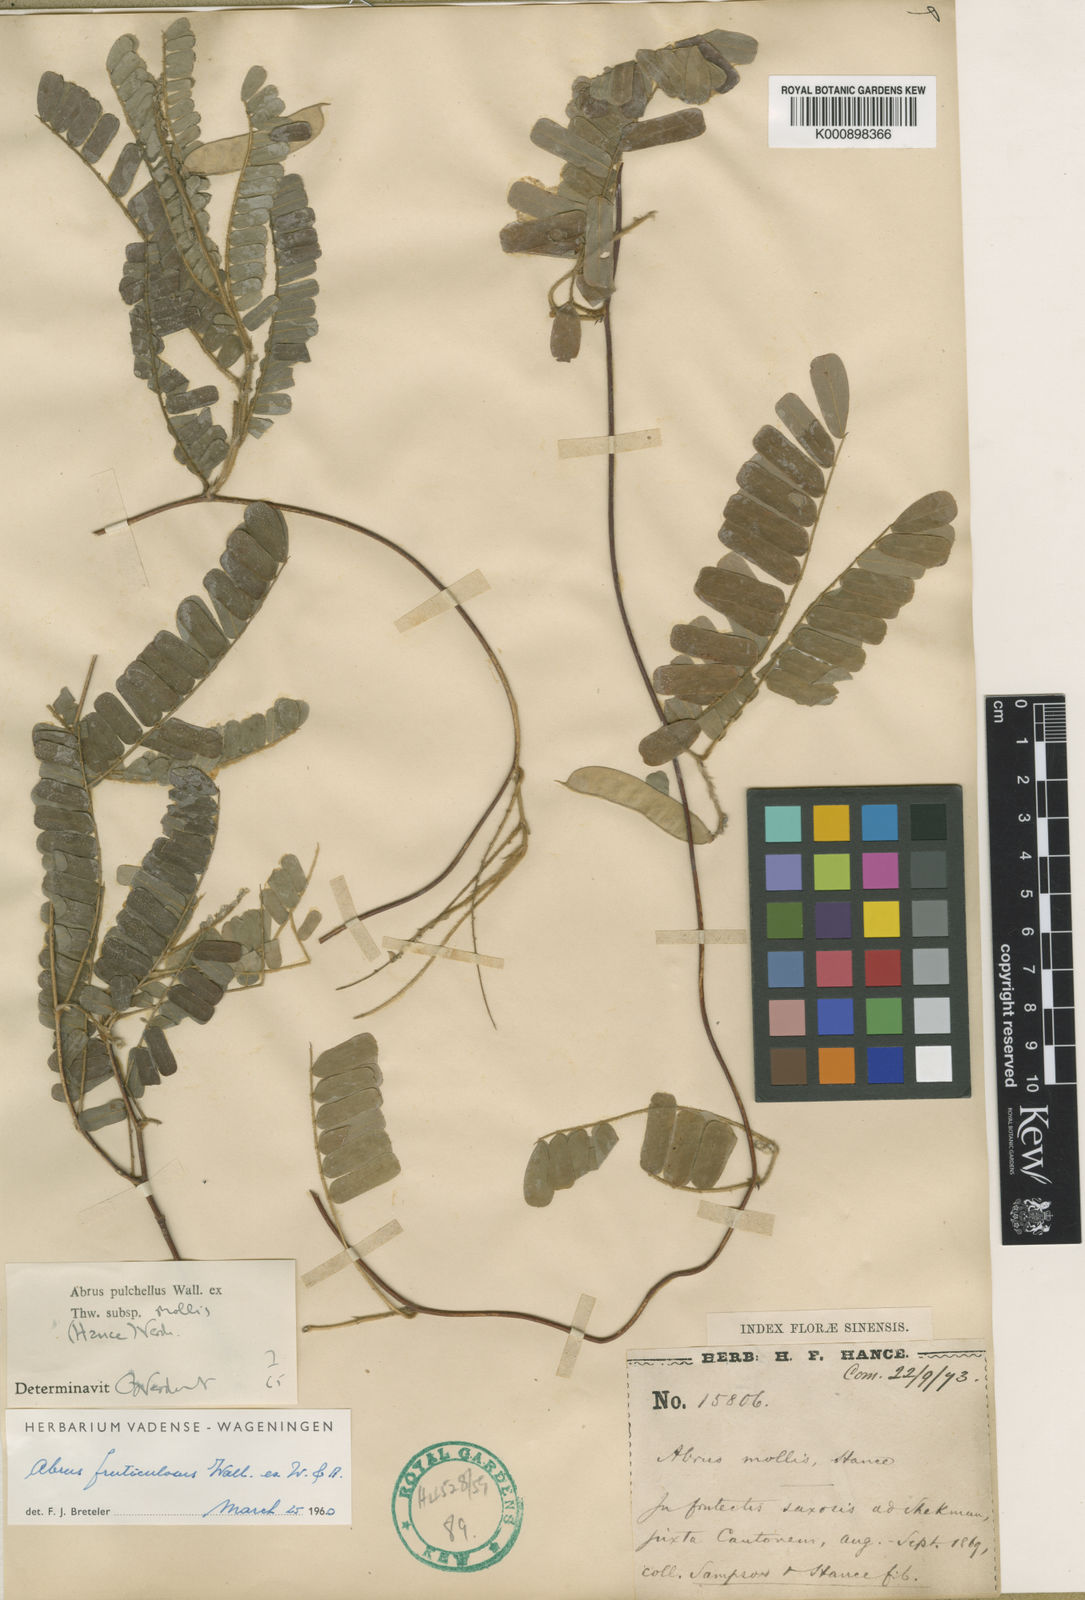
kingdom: Plantae
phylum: Tracheophyta
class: Magnoliopsida
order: Fabales
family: Fabaceae
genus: Abrus
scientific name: Abrus
